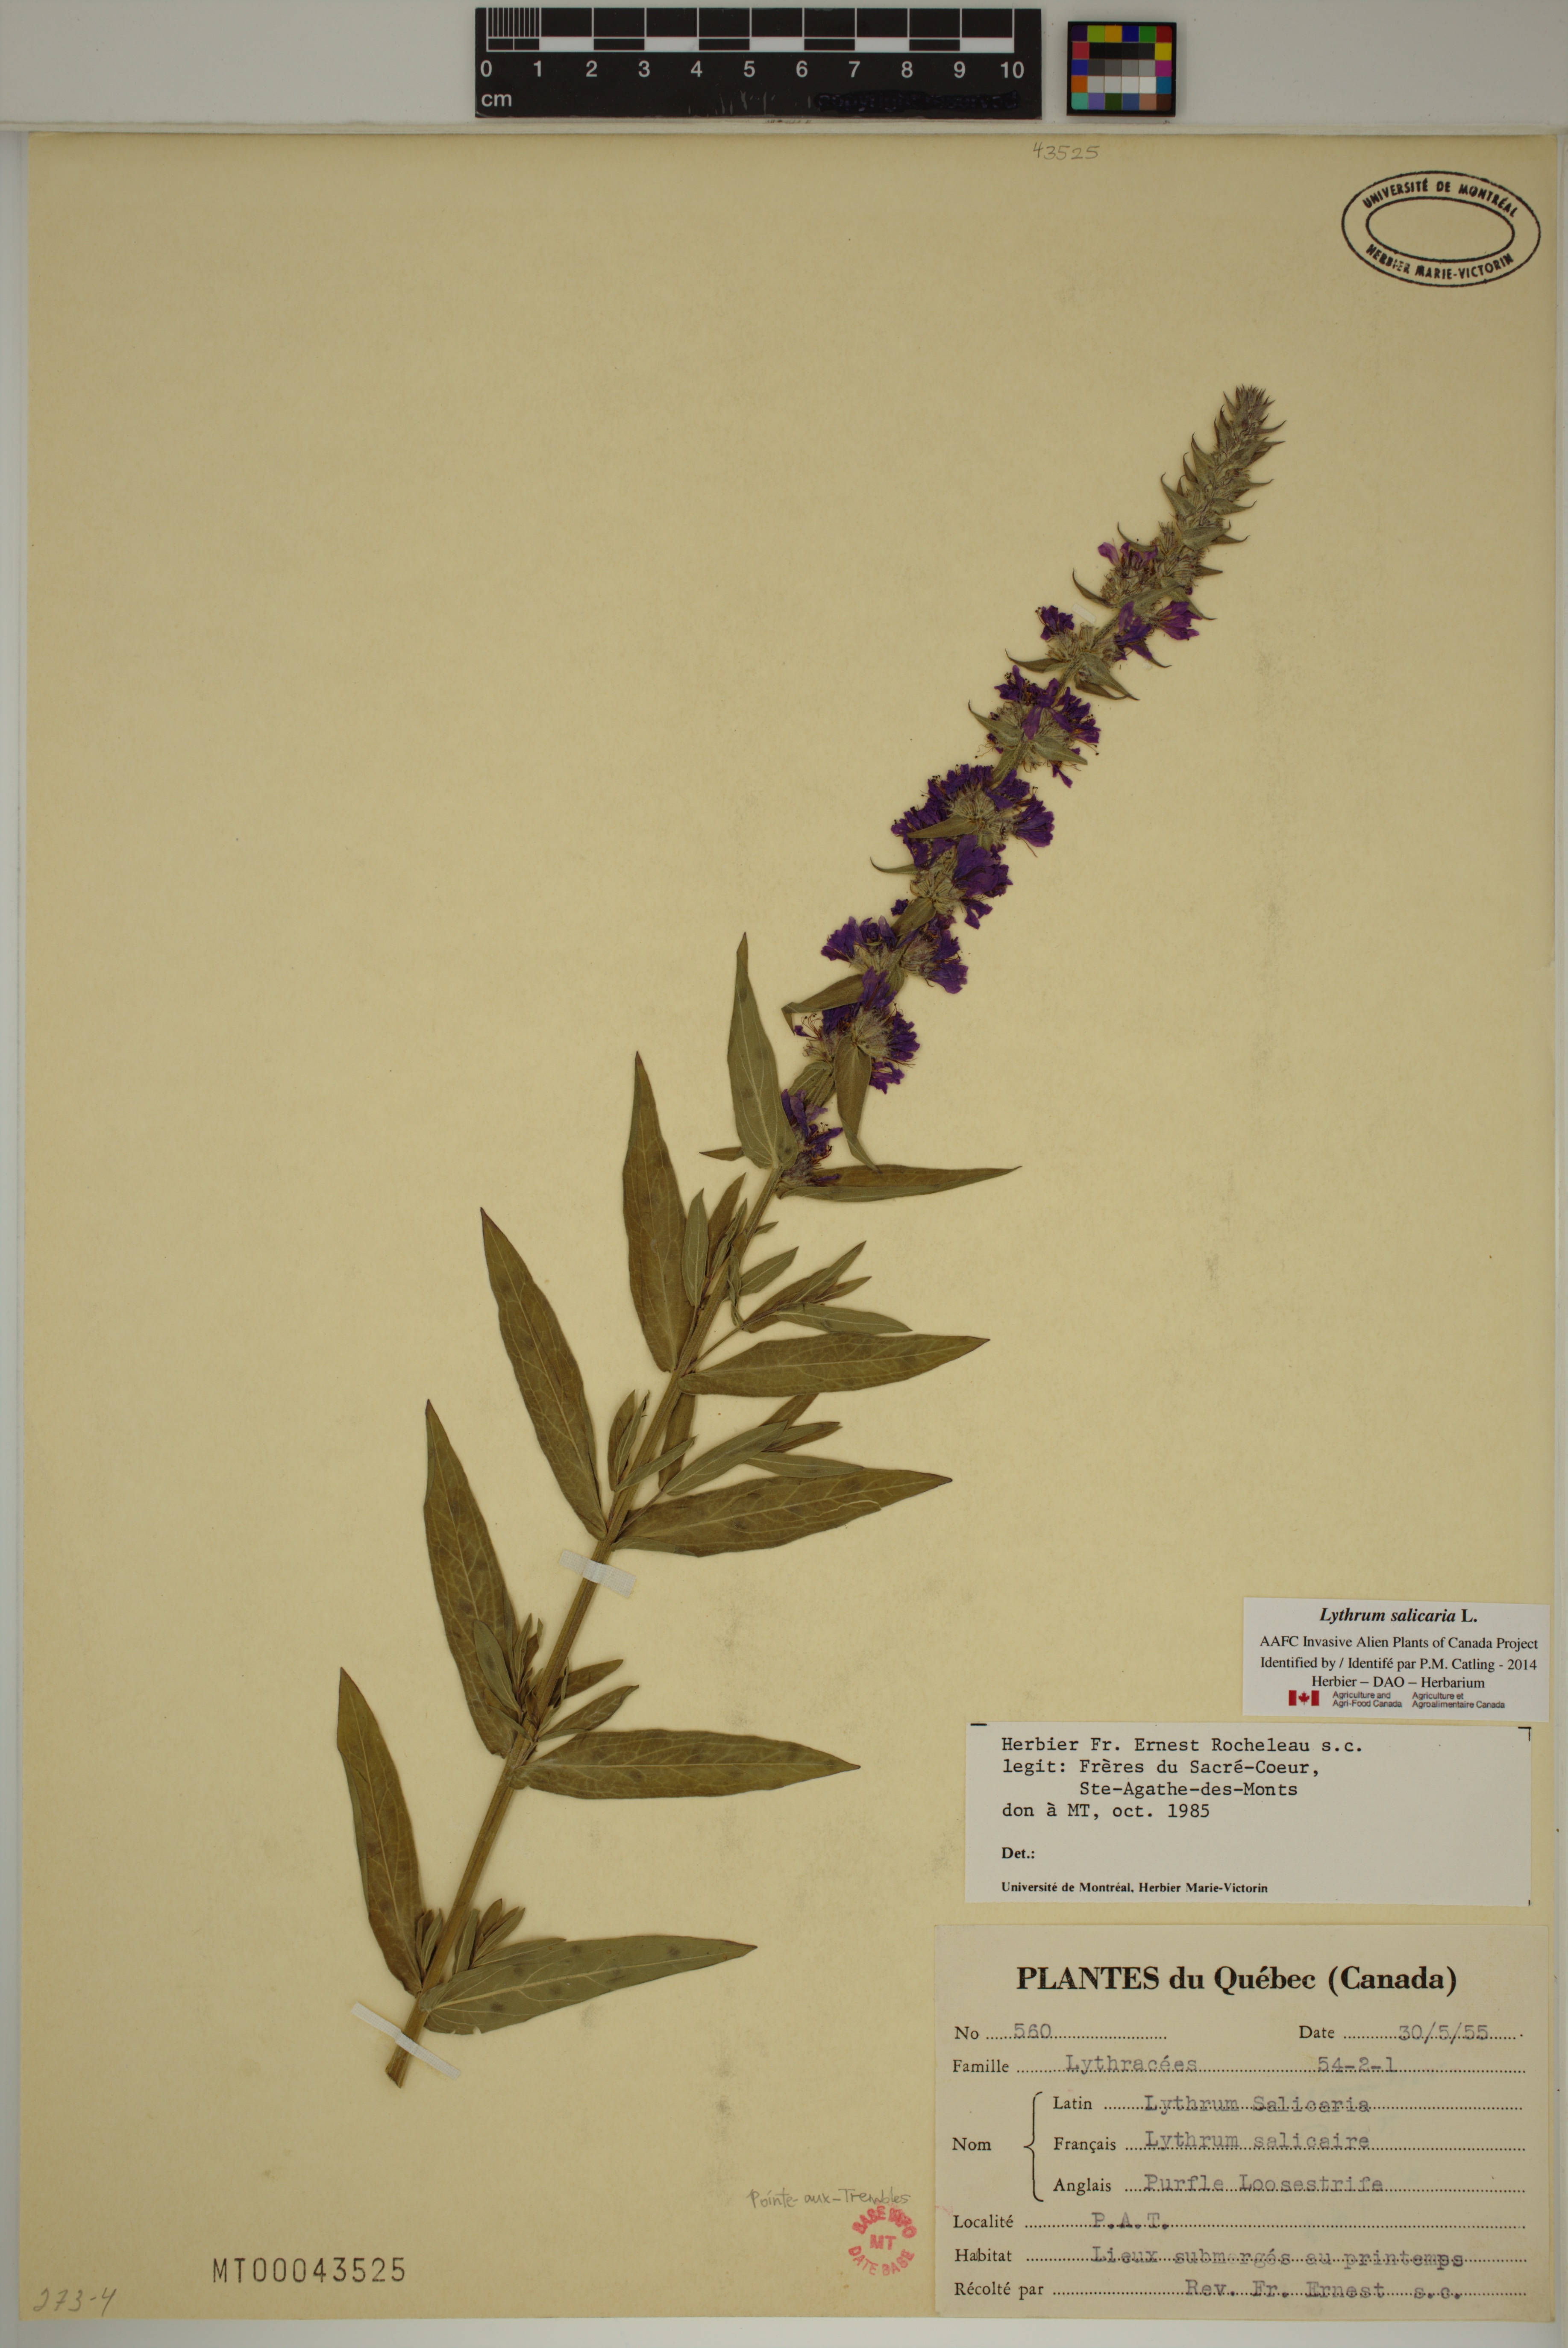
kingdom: Plantae
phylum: Tracheophyta
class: Magnoliopsida
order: Myrtales
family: Lythraceae
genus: Lythrum
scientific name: Lythrum salicaria
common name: Purple loosestrife
